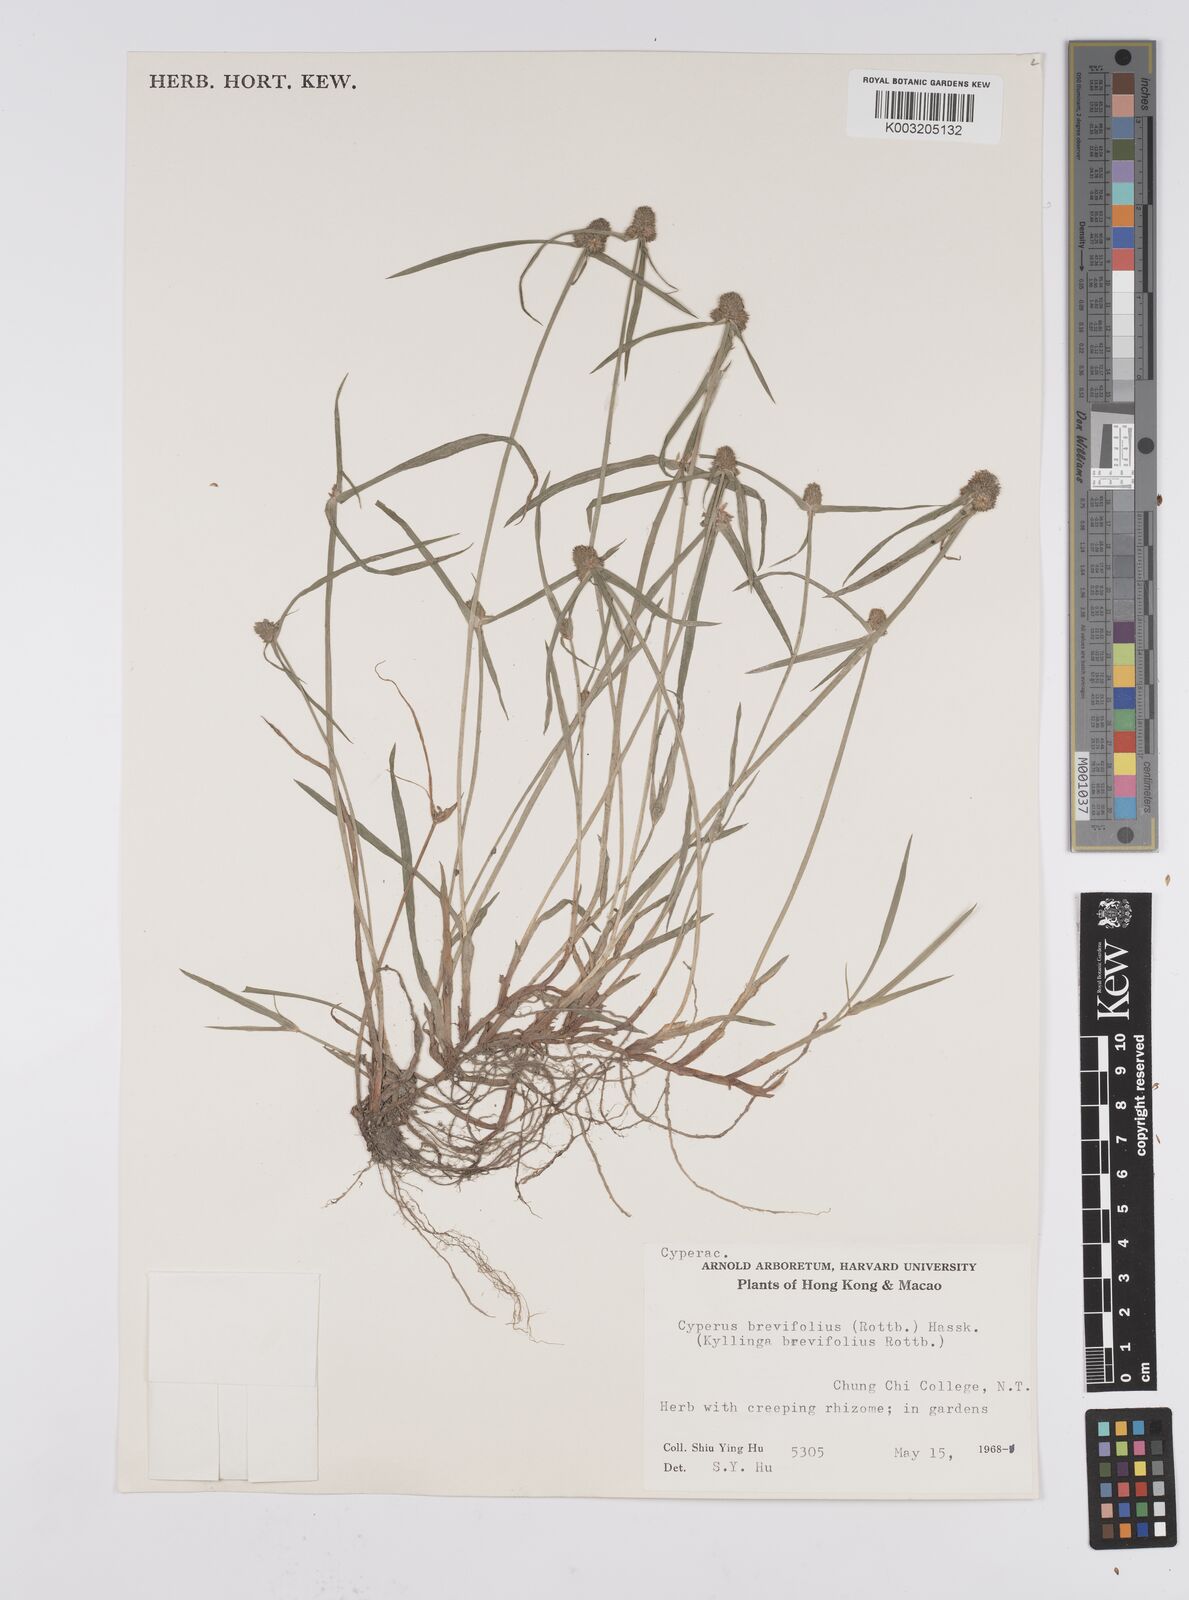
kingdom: Plantae
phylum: Tracheophyta
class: Liliopsida
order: Poales
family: Cyperaceae
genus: Cyperus
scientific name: Cyperus brevifolius
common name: Globe kyllinga
